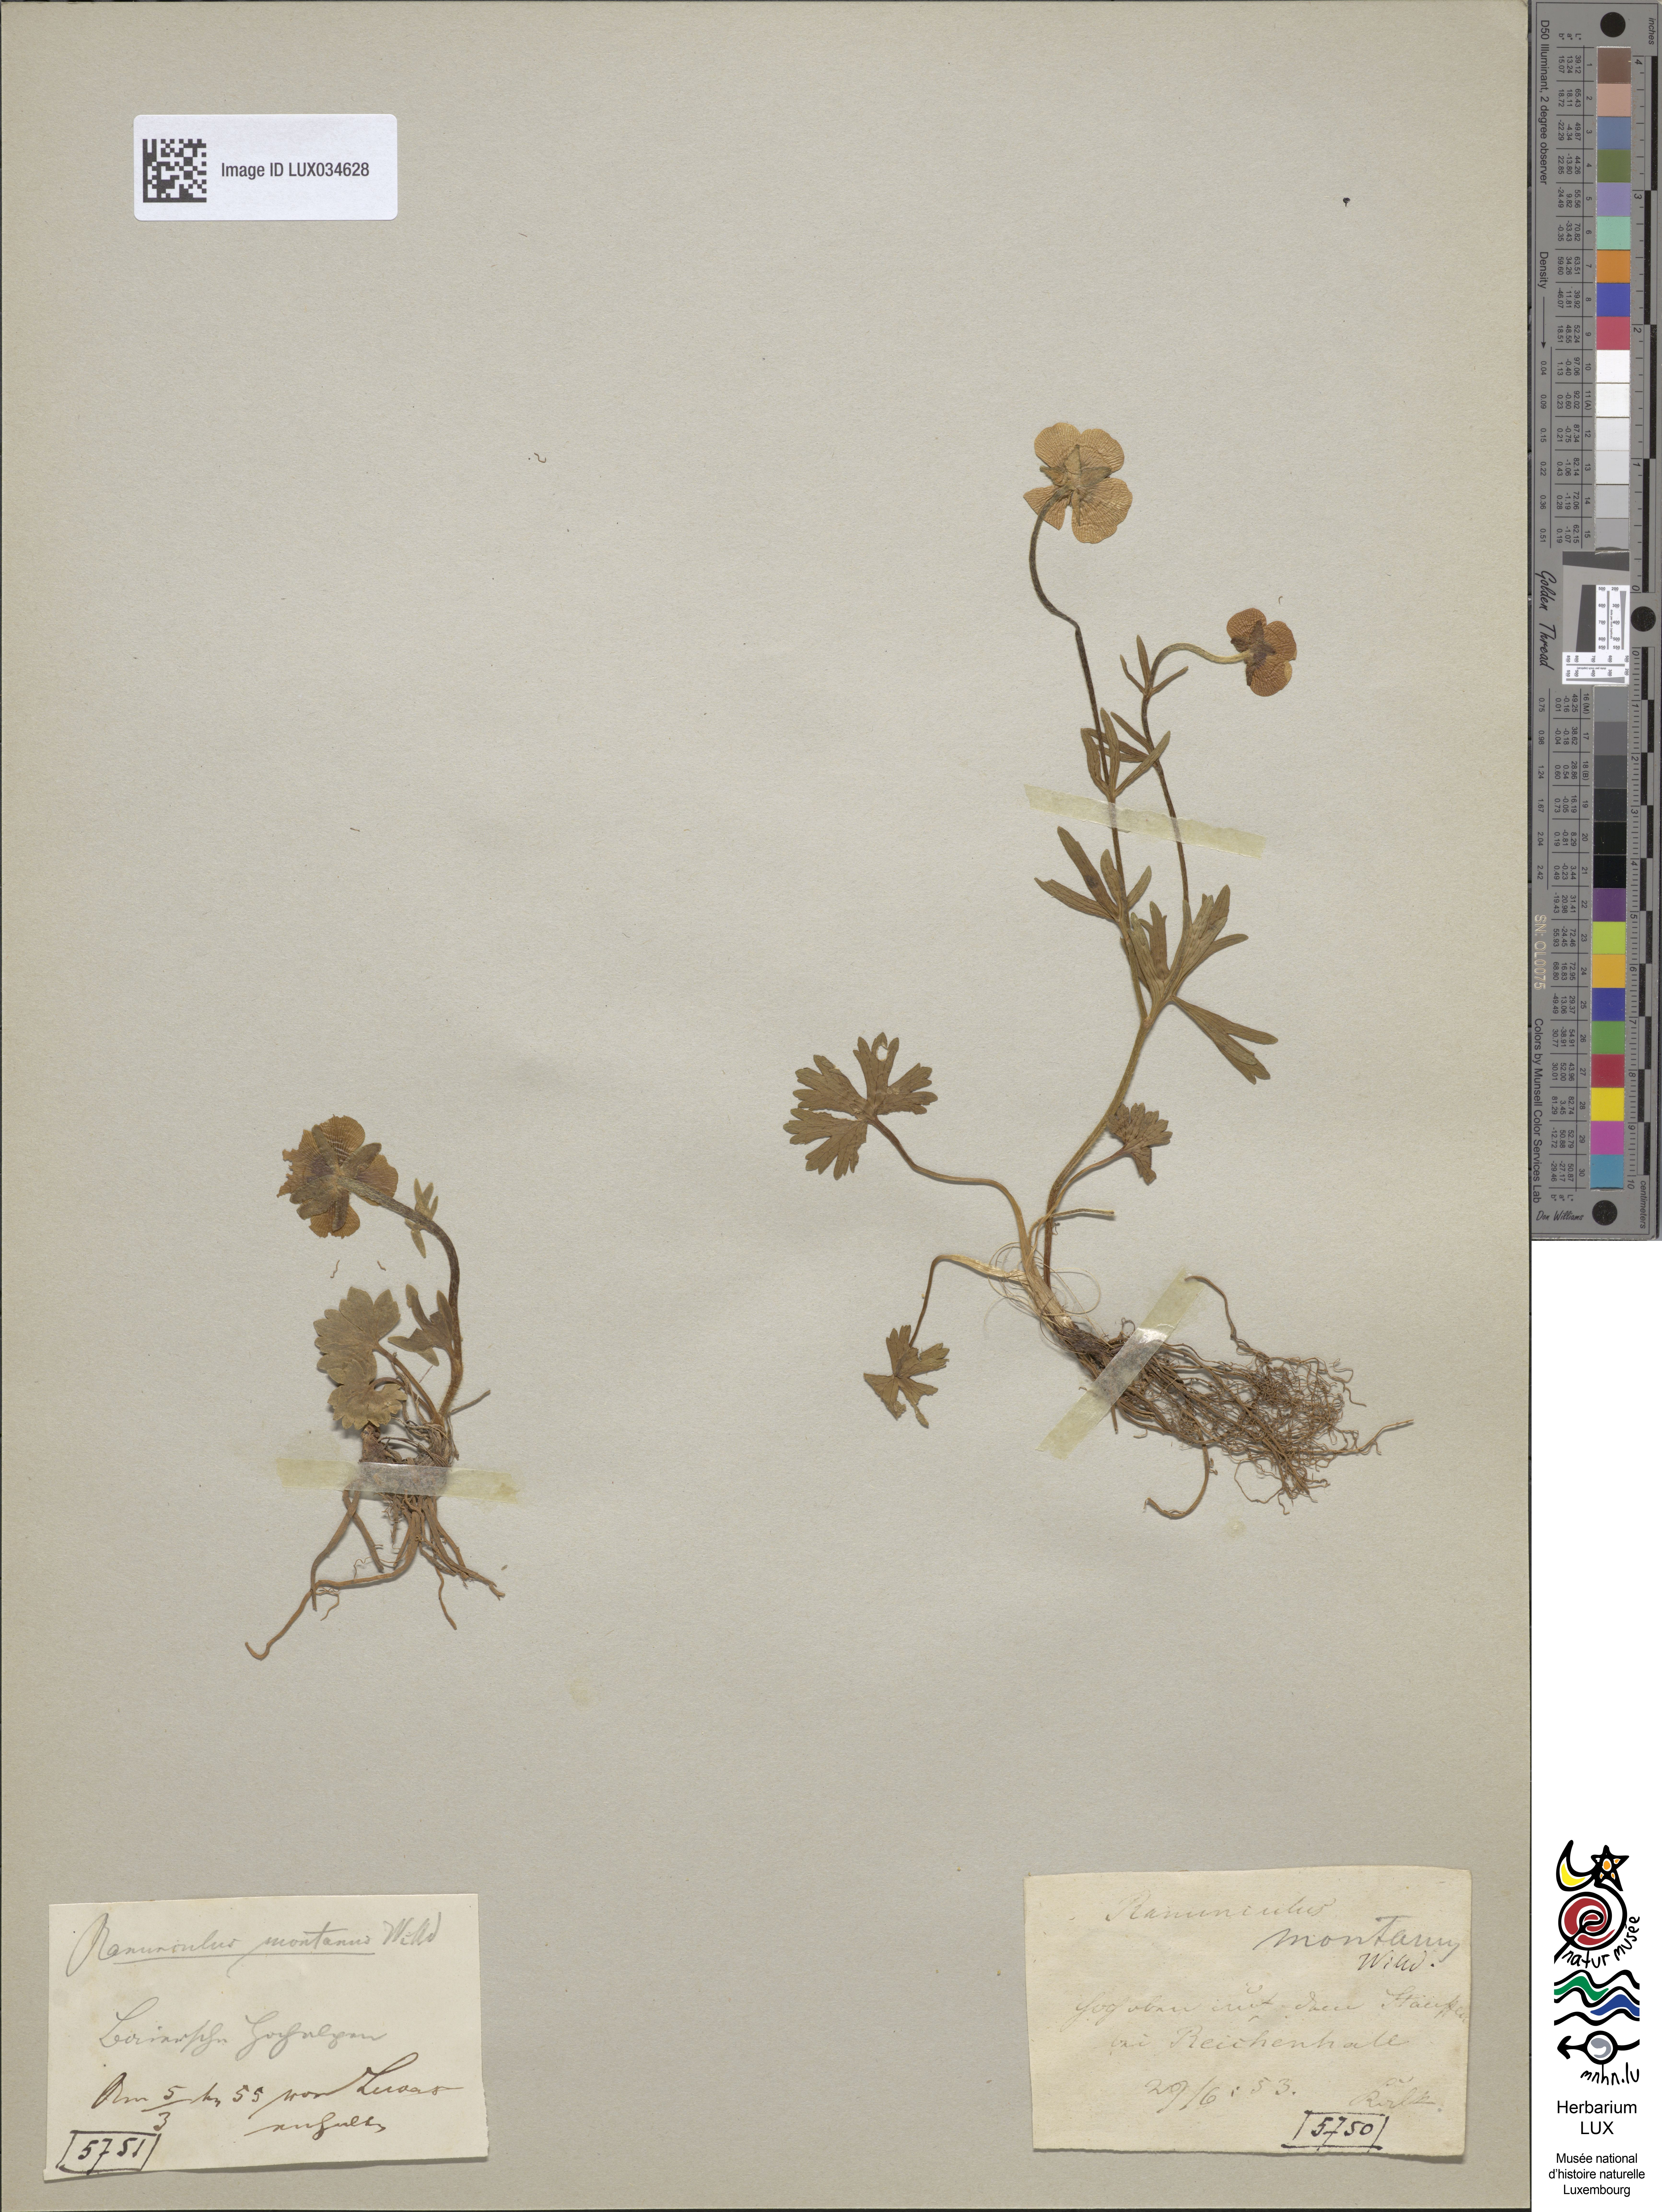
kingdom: Plantae
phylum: Tracheophyta
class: Magnoliopsida
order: Ranunculales
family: Ranunculaceae
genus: Ranunculus
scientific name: Ranunculus montanus
